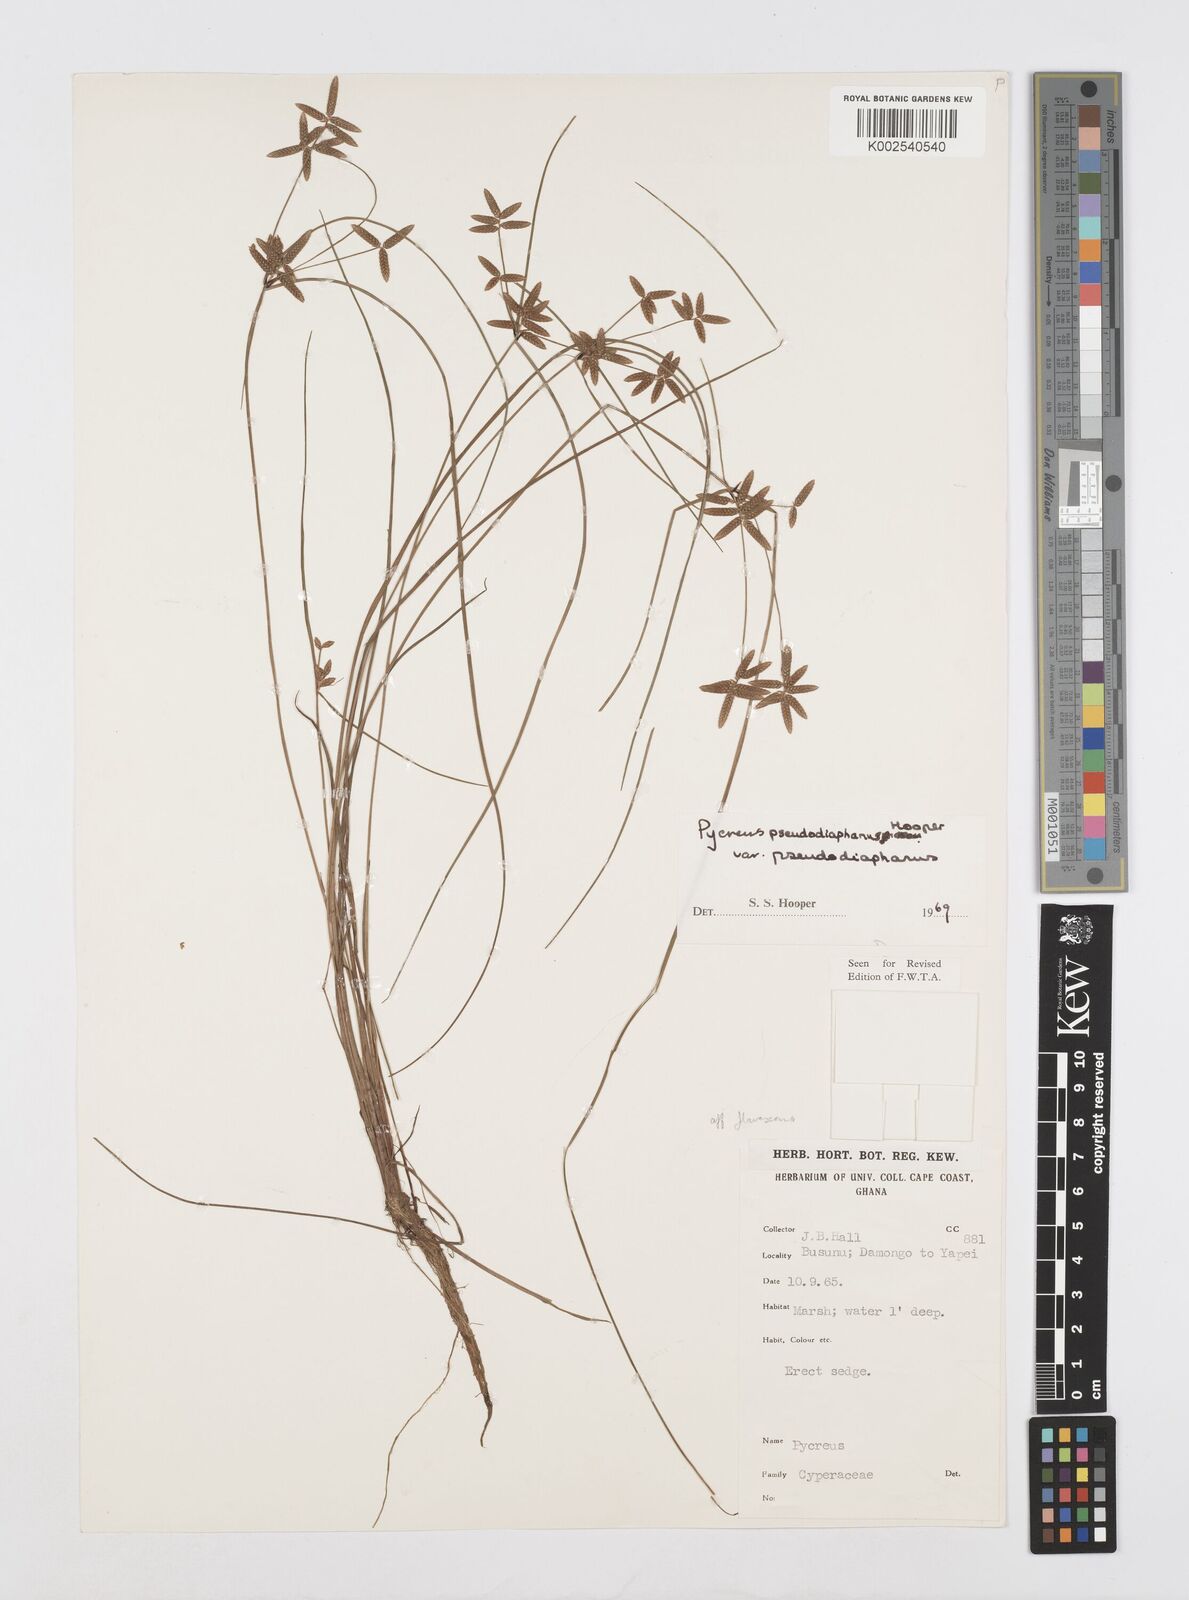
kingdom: Plantae
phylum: Tracheophyta
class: Liliopsida
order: Poales
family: Cyperaceae
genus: Cyperus
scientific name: Cyperus pseudodiaphanus
